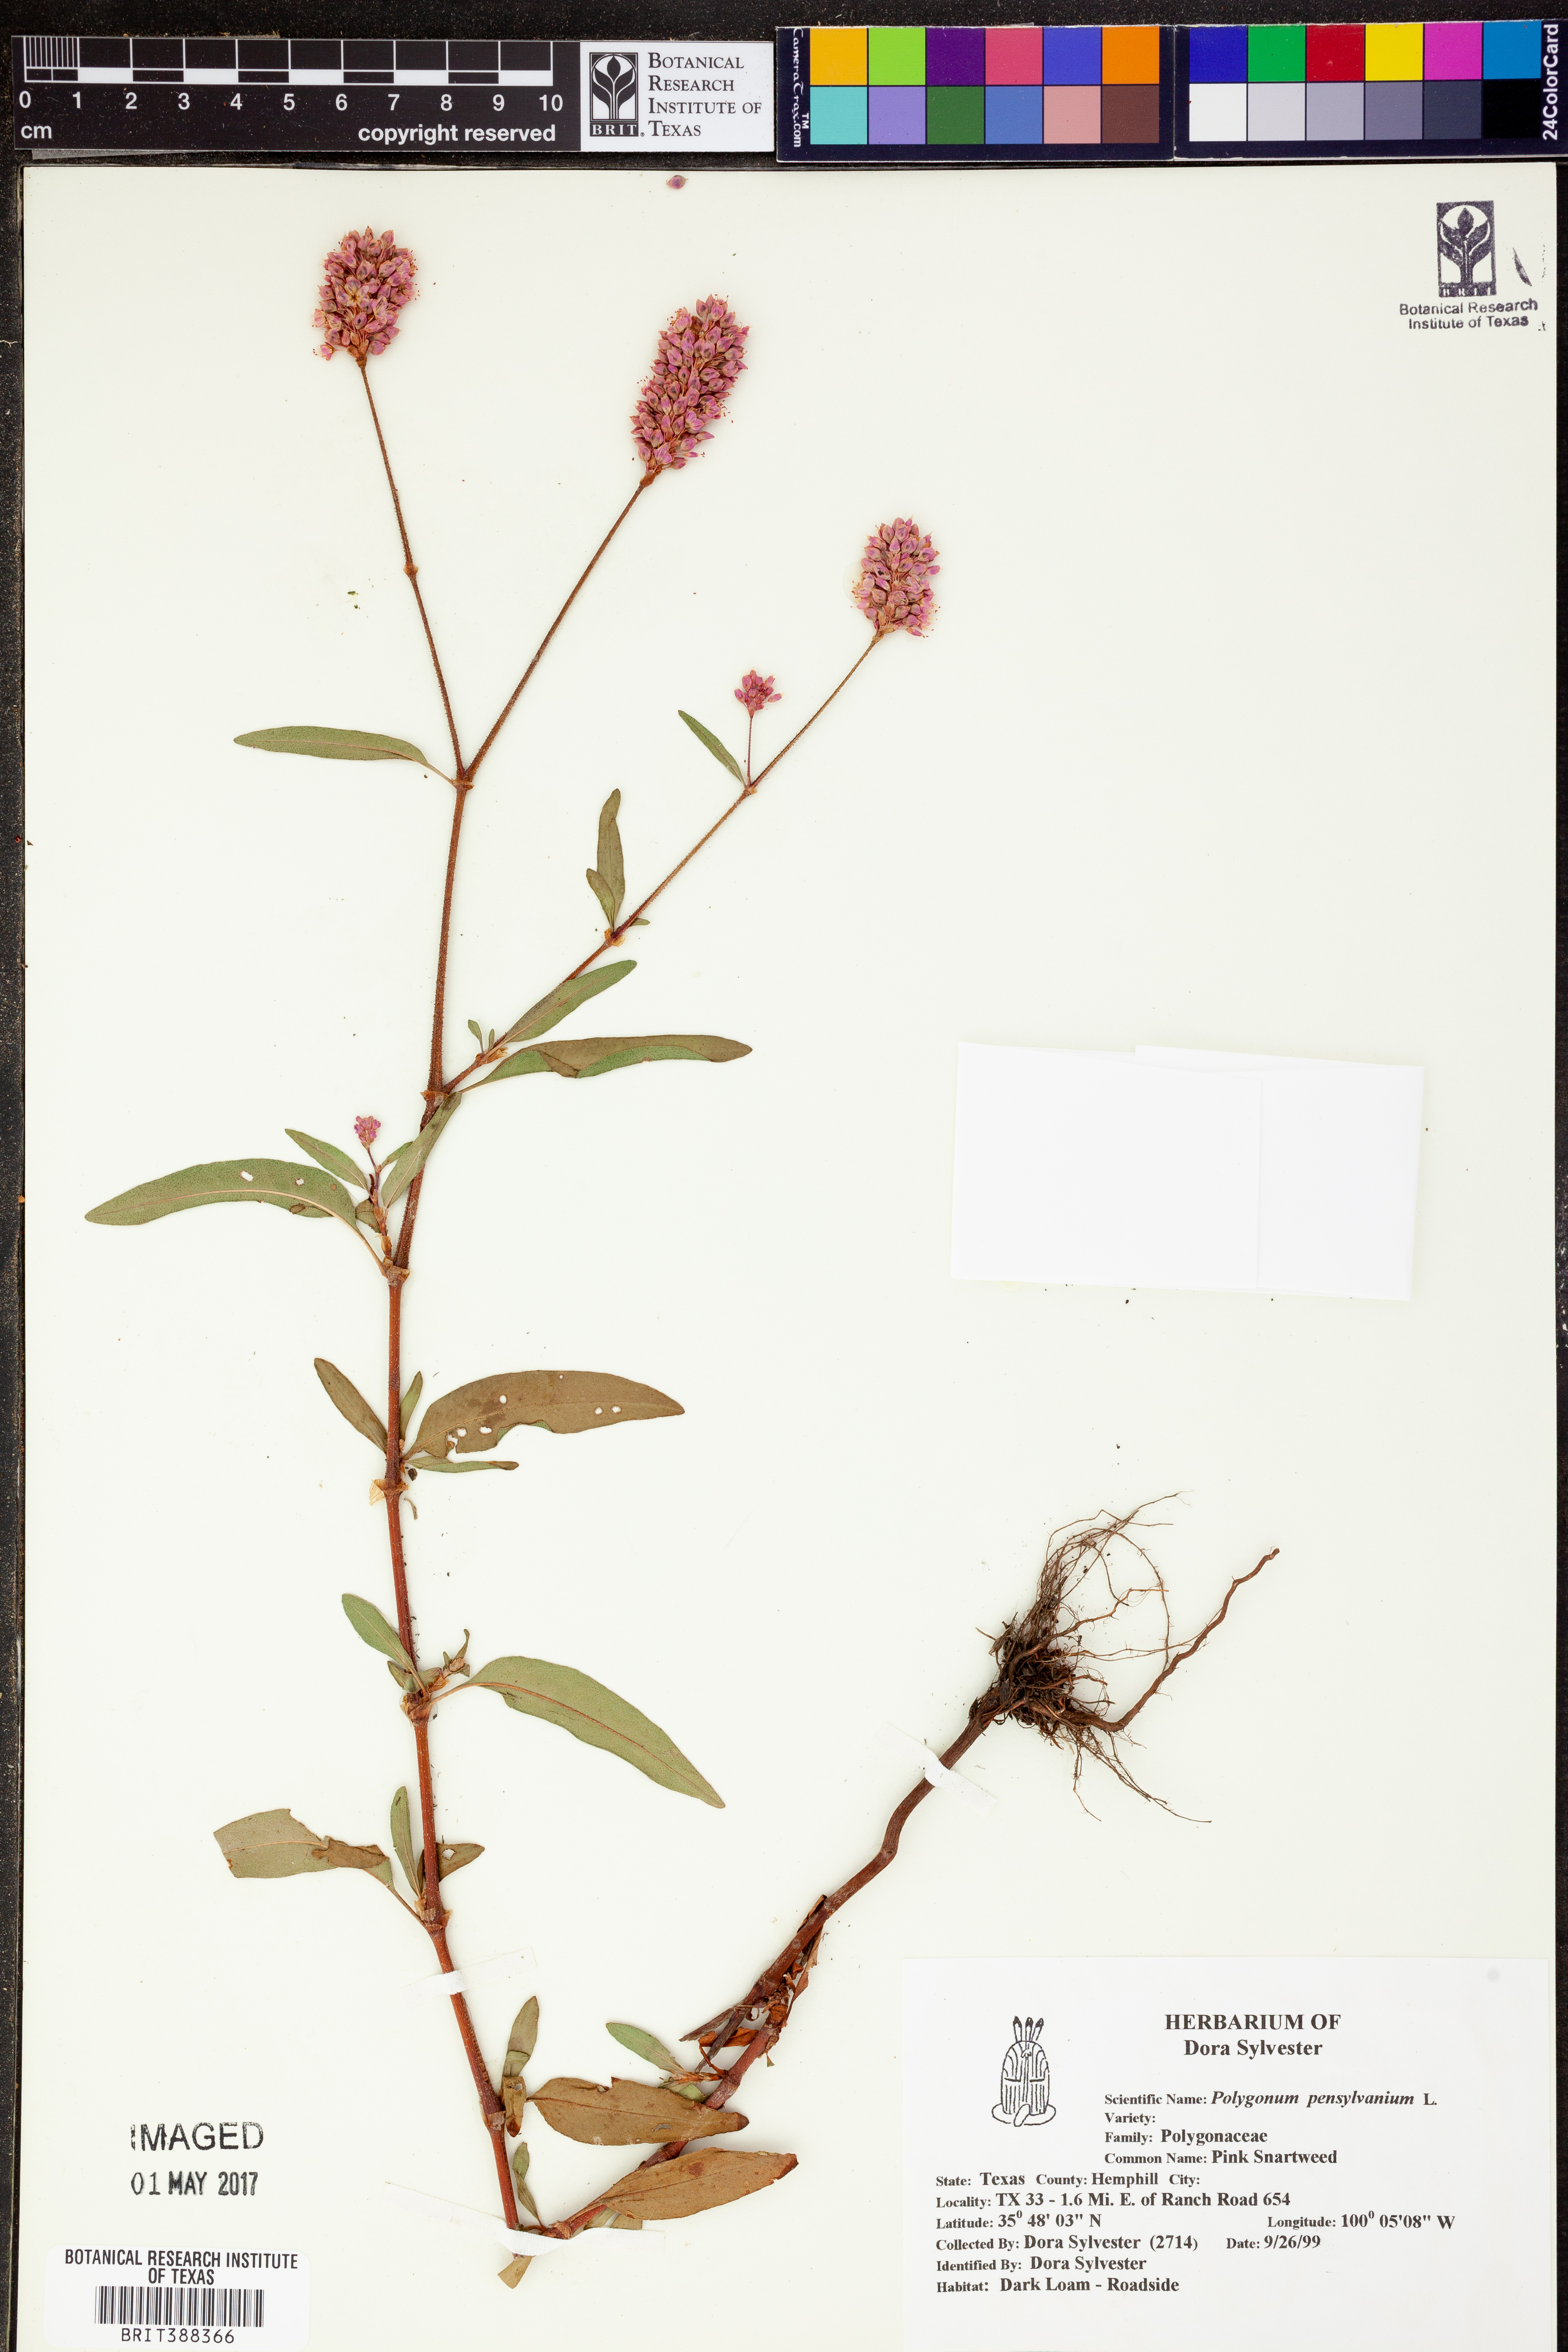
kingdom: Plantae
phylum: Tracheophyta
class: Magnoliopsida
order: Caryophyllales
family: Polygonaceae
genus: Persicaria
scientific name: Persicaria pensylvanica
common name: Pinkweed
